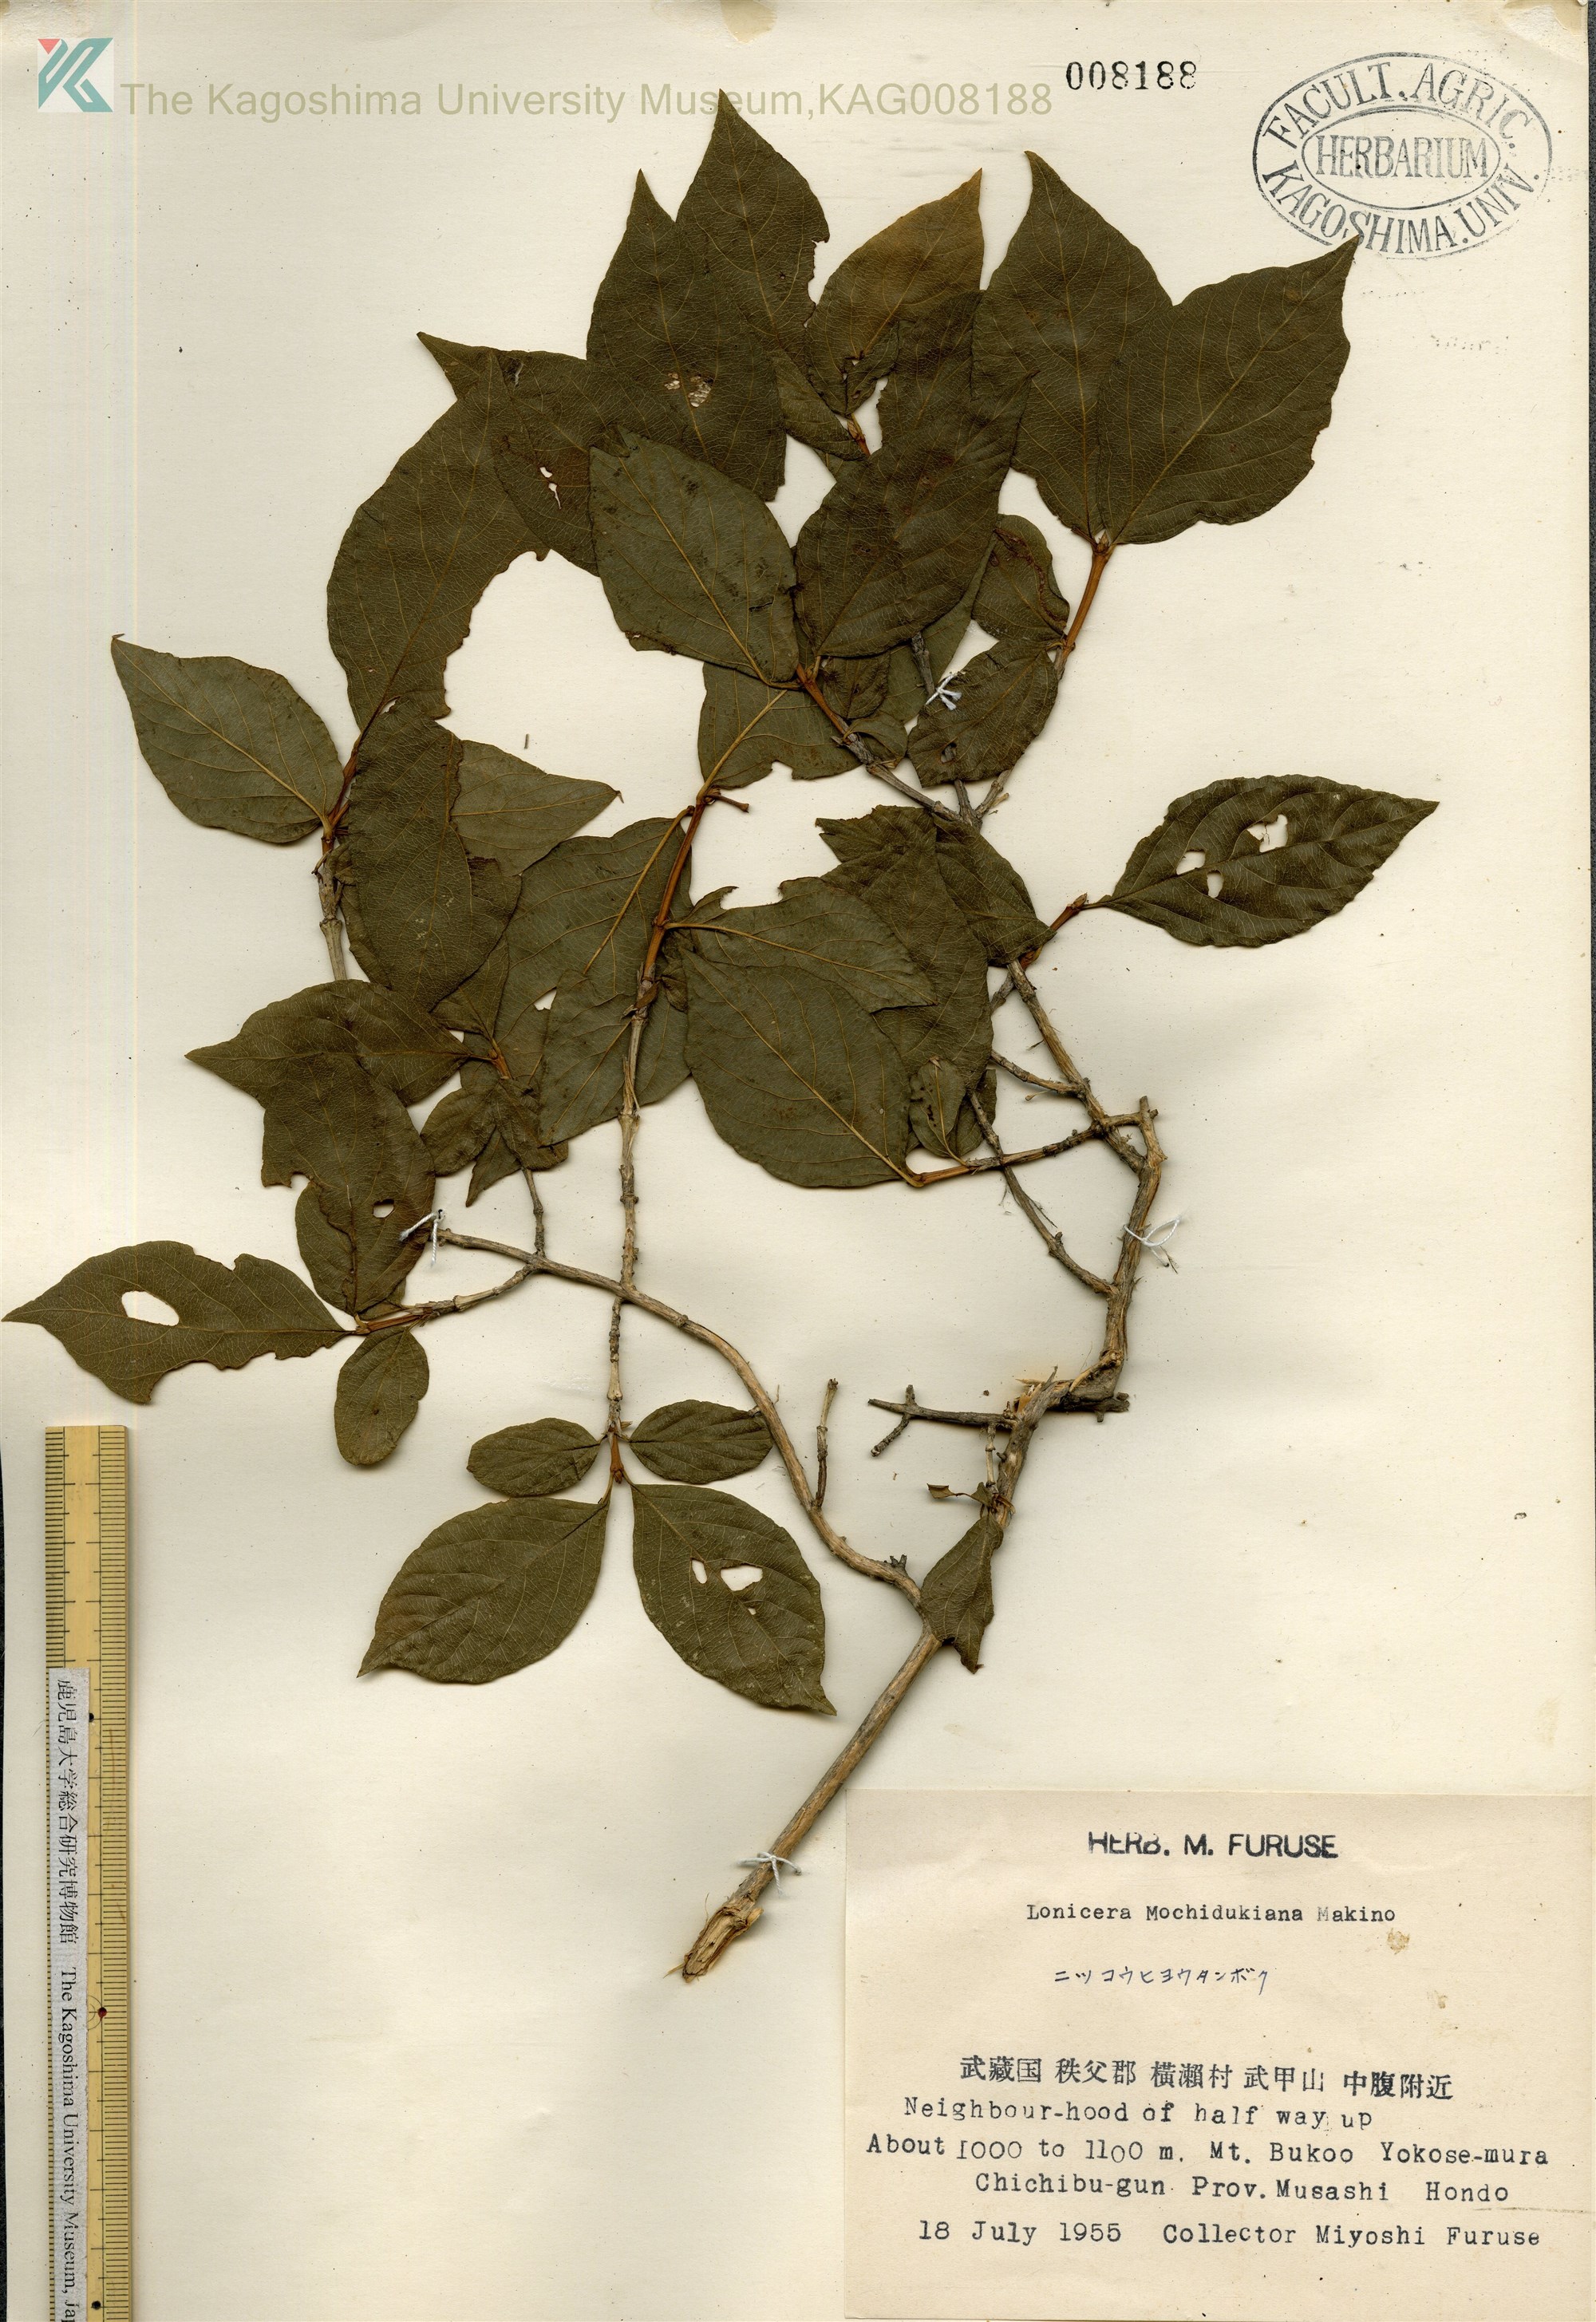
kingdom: Plantae
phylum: Tracheophyta
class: Magnoliopsida
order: Dipsacales
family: Caprifoliaceae
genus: Lonicera
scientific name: Lonicera subhispida
